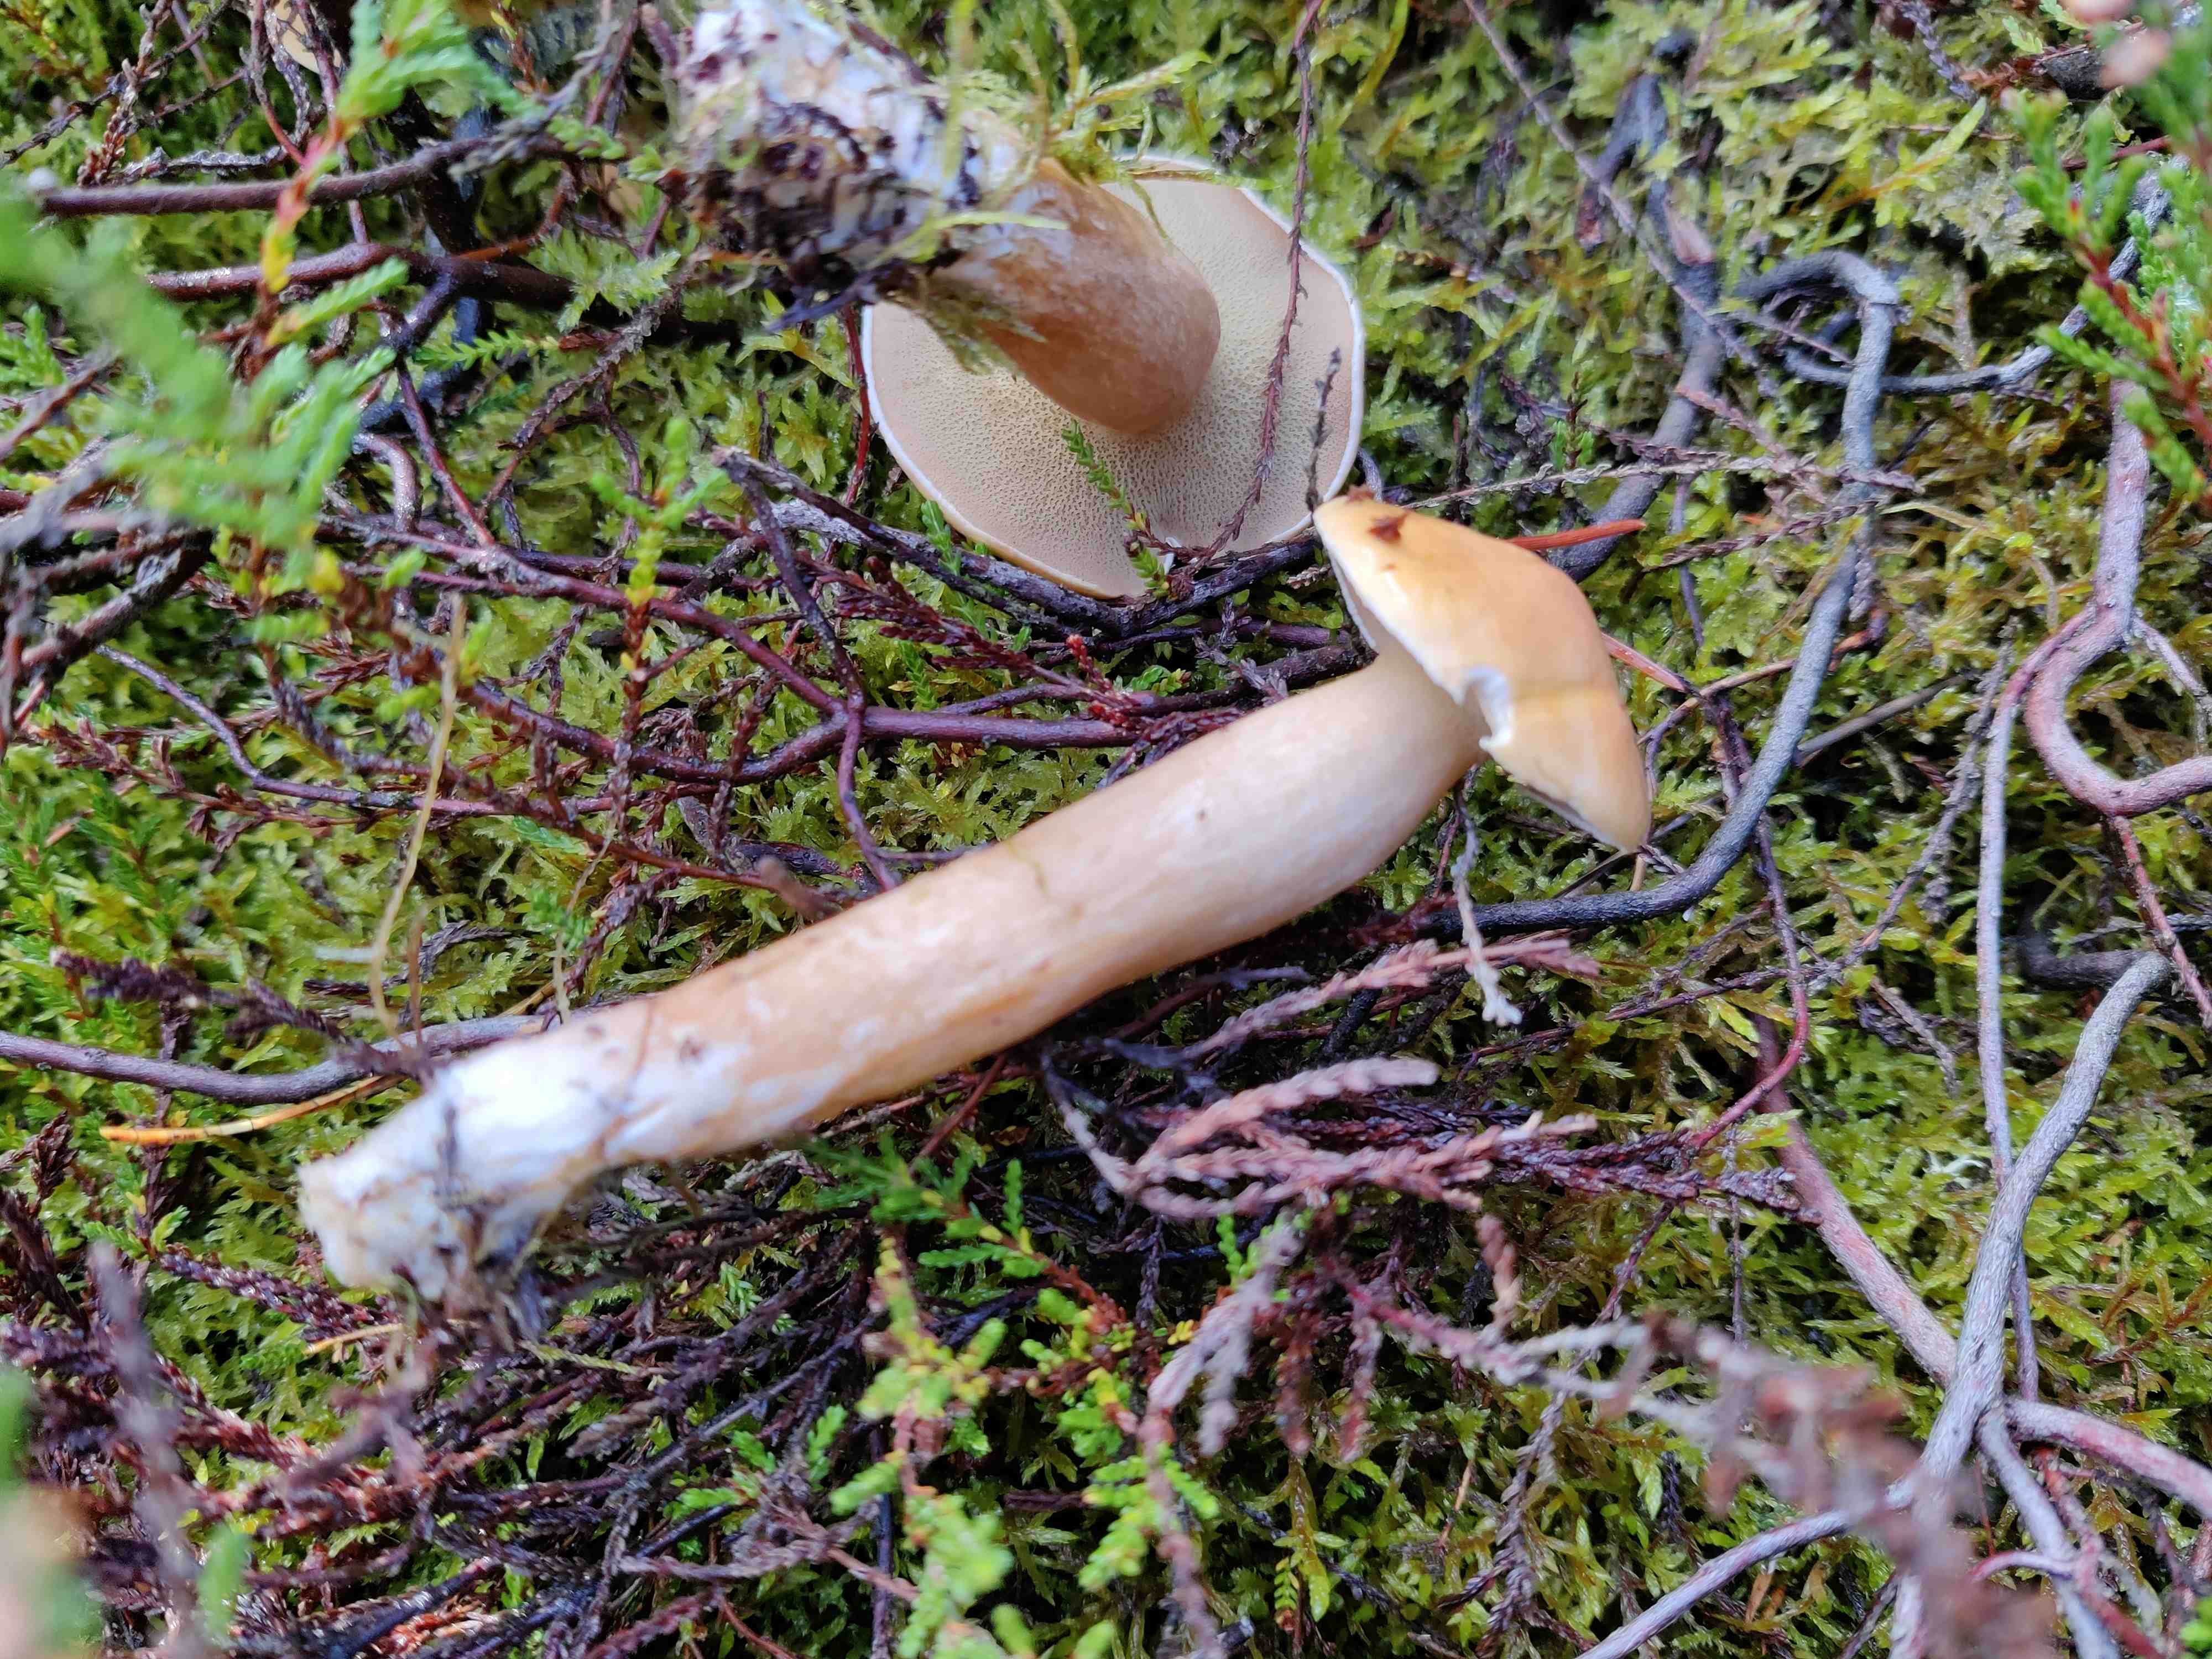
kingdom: Fungi
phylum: Basidiomycota
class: Agaricomycetes
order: Boletales
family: Suillaceae
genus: Suillus
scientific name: Suillus bovinus
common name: grovporet slimrørhat
